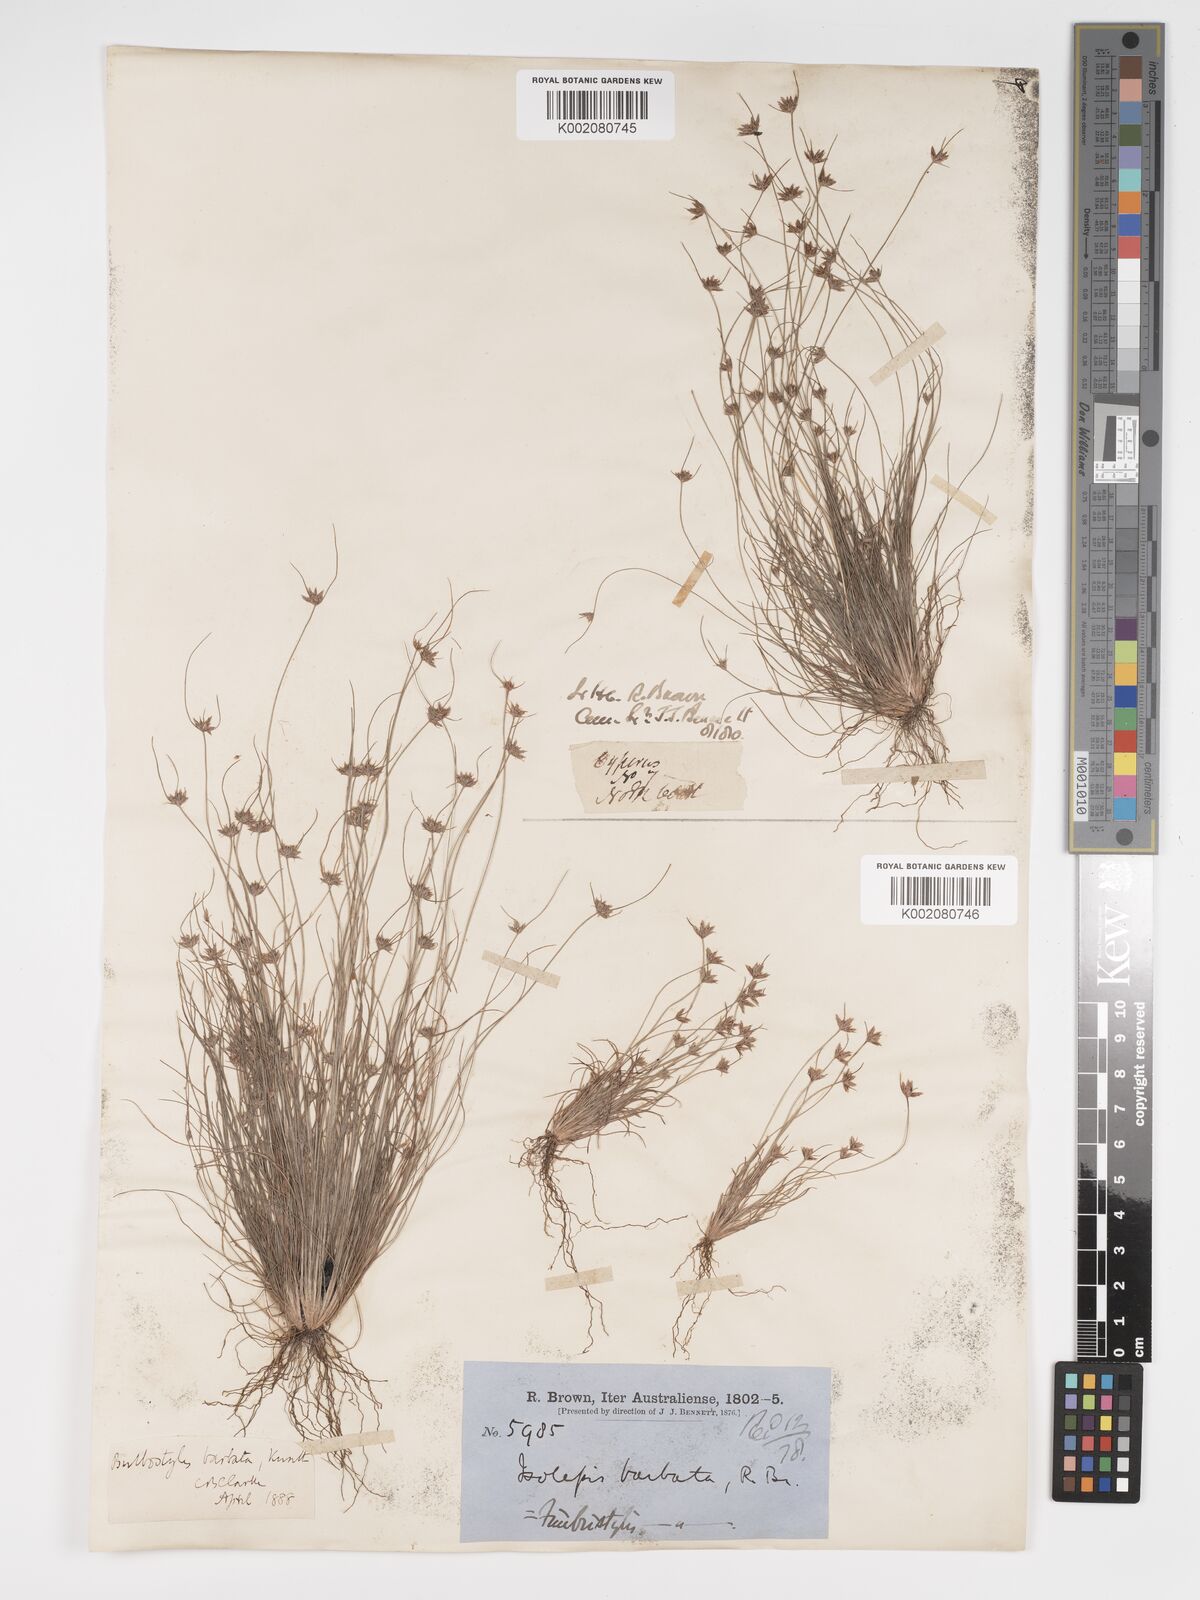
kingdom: Plantae
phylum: Tracheophyta
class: Liliopsida
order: Poales
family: Cyperaceae
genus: Bulbostylis
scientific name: Bulbostylis barbata
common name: Watergrass
